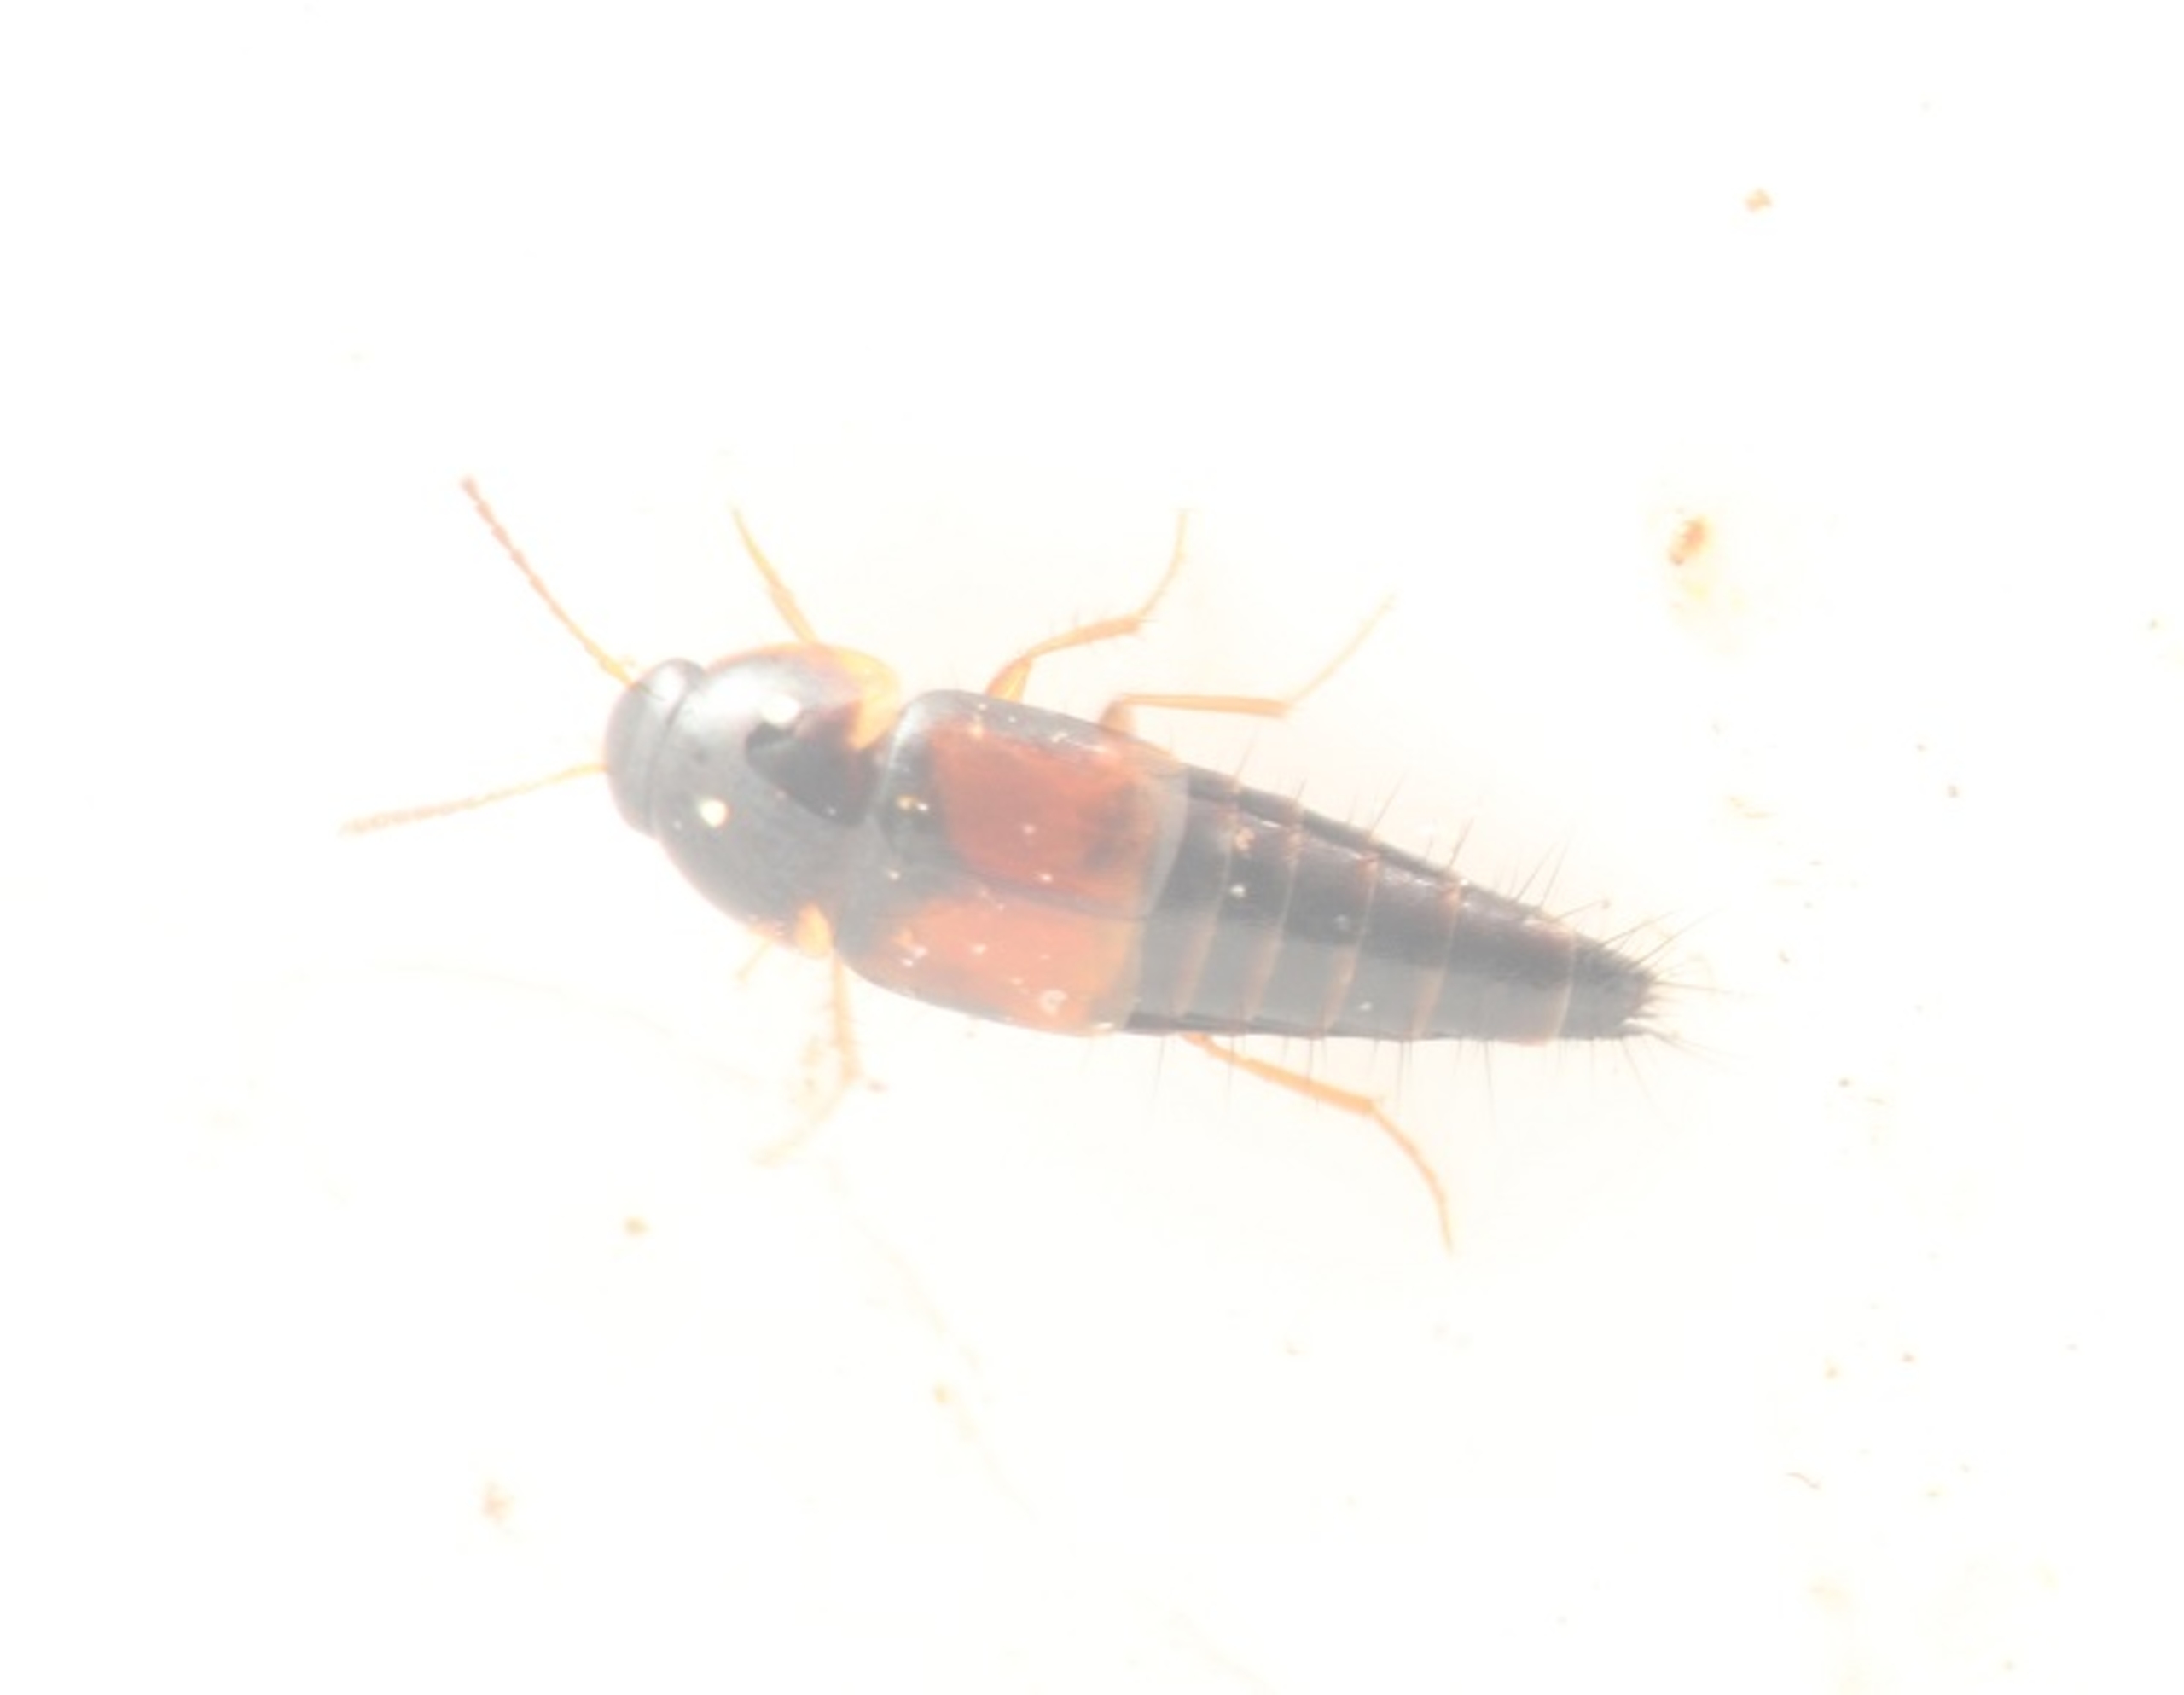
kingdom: Animalia
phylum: Arthropoda
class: Insecta
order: Coleoptera
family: Staphylinidae
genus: Tachyporus
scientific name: Tachyporus hypnorum
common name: Sortplettet agerrovbille
